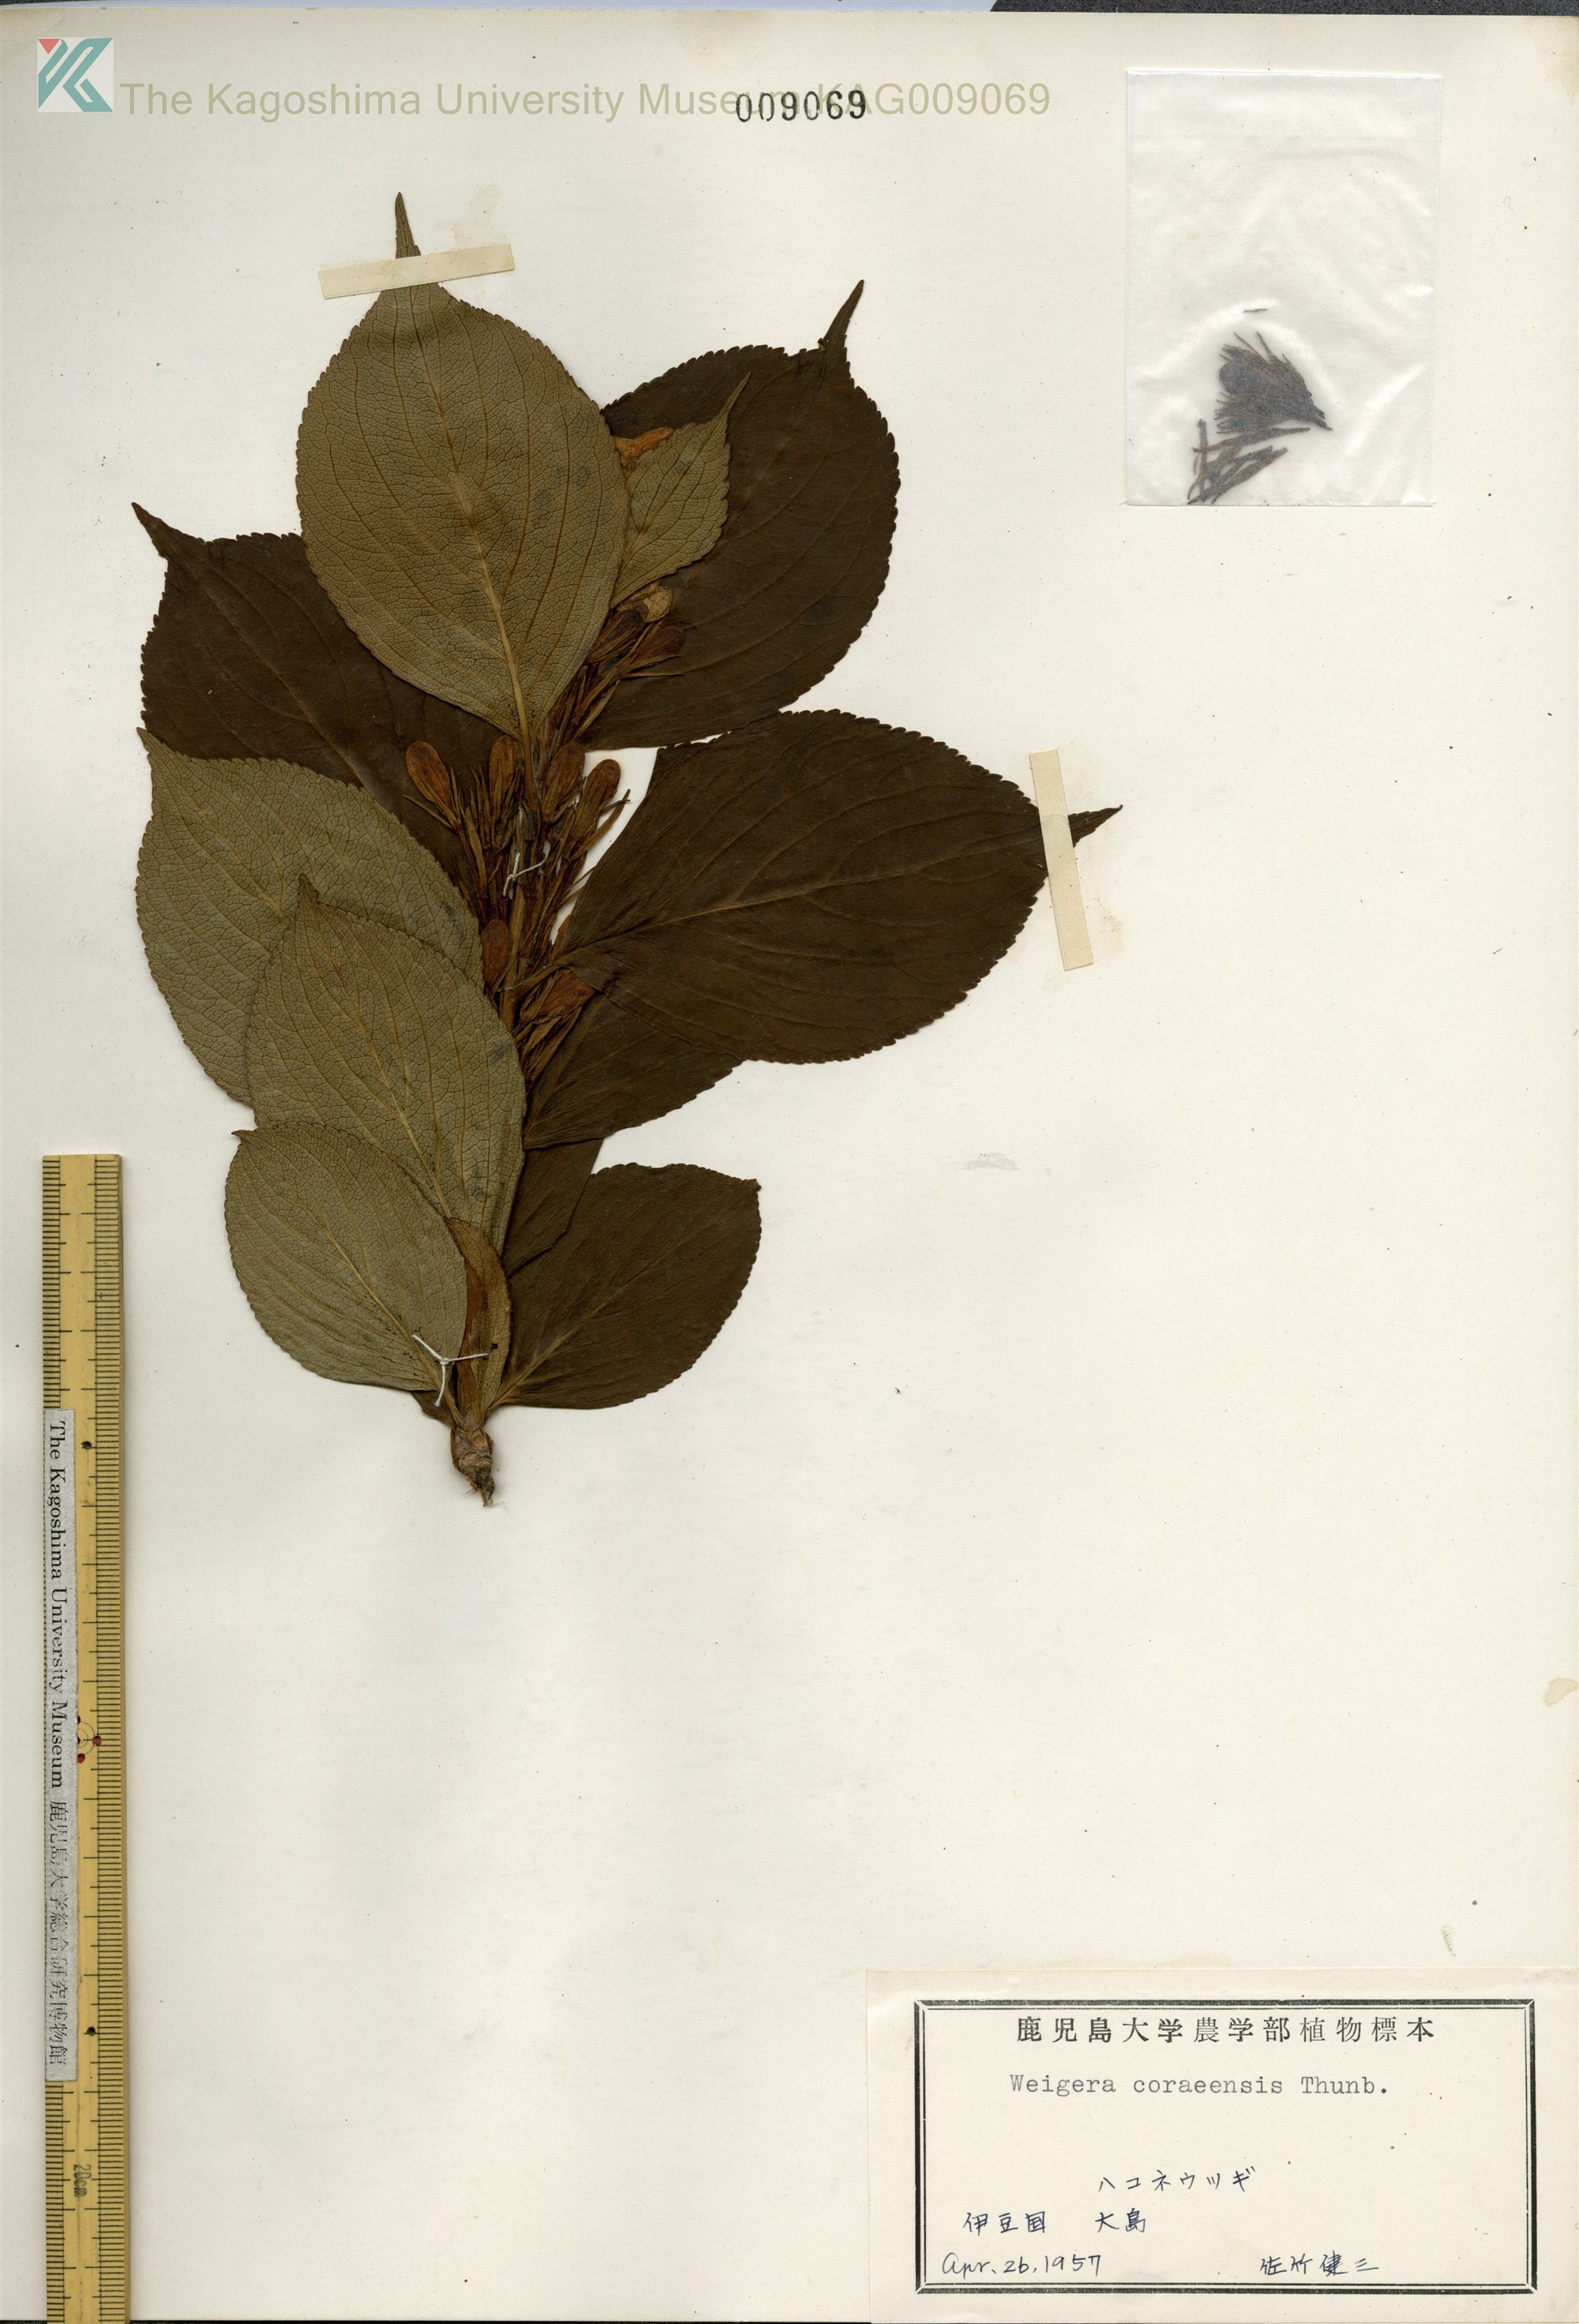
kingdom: Plantae
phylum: Tracheophyta
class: Magnoliopsida
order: Dipsacales
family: Caprifoliaceae
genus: Weigela
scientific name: Weigela
